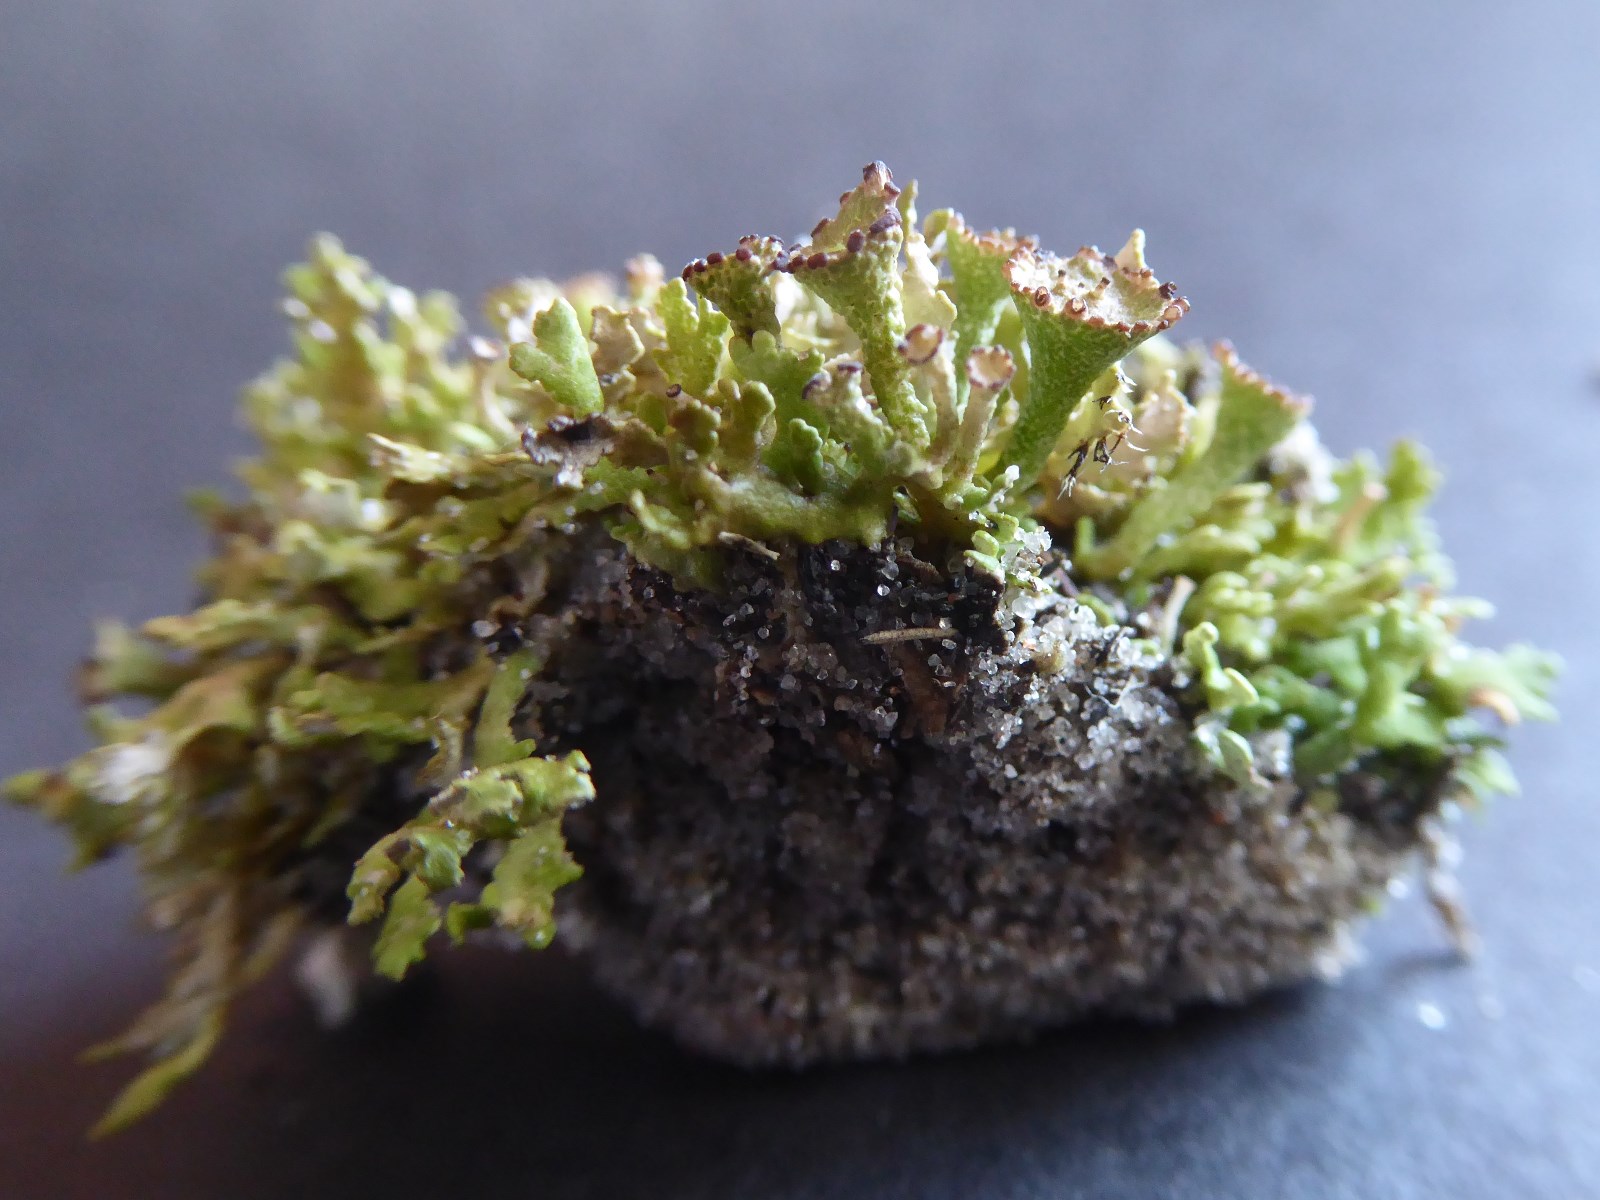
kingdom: Fungi
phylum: Ascomycota
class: Lecanoromycetes
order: Lecanorales
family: Cladoniaceae
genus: Cladonia
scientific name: Cladonia cervicornis
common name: gevir-bægerlav
